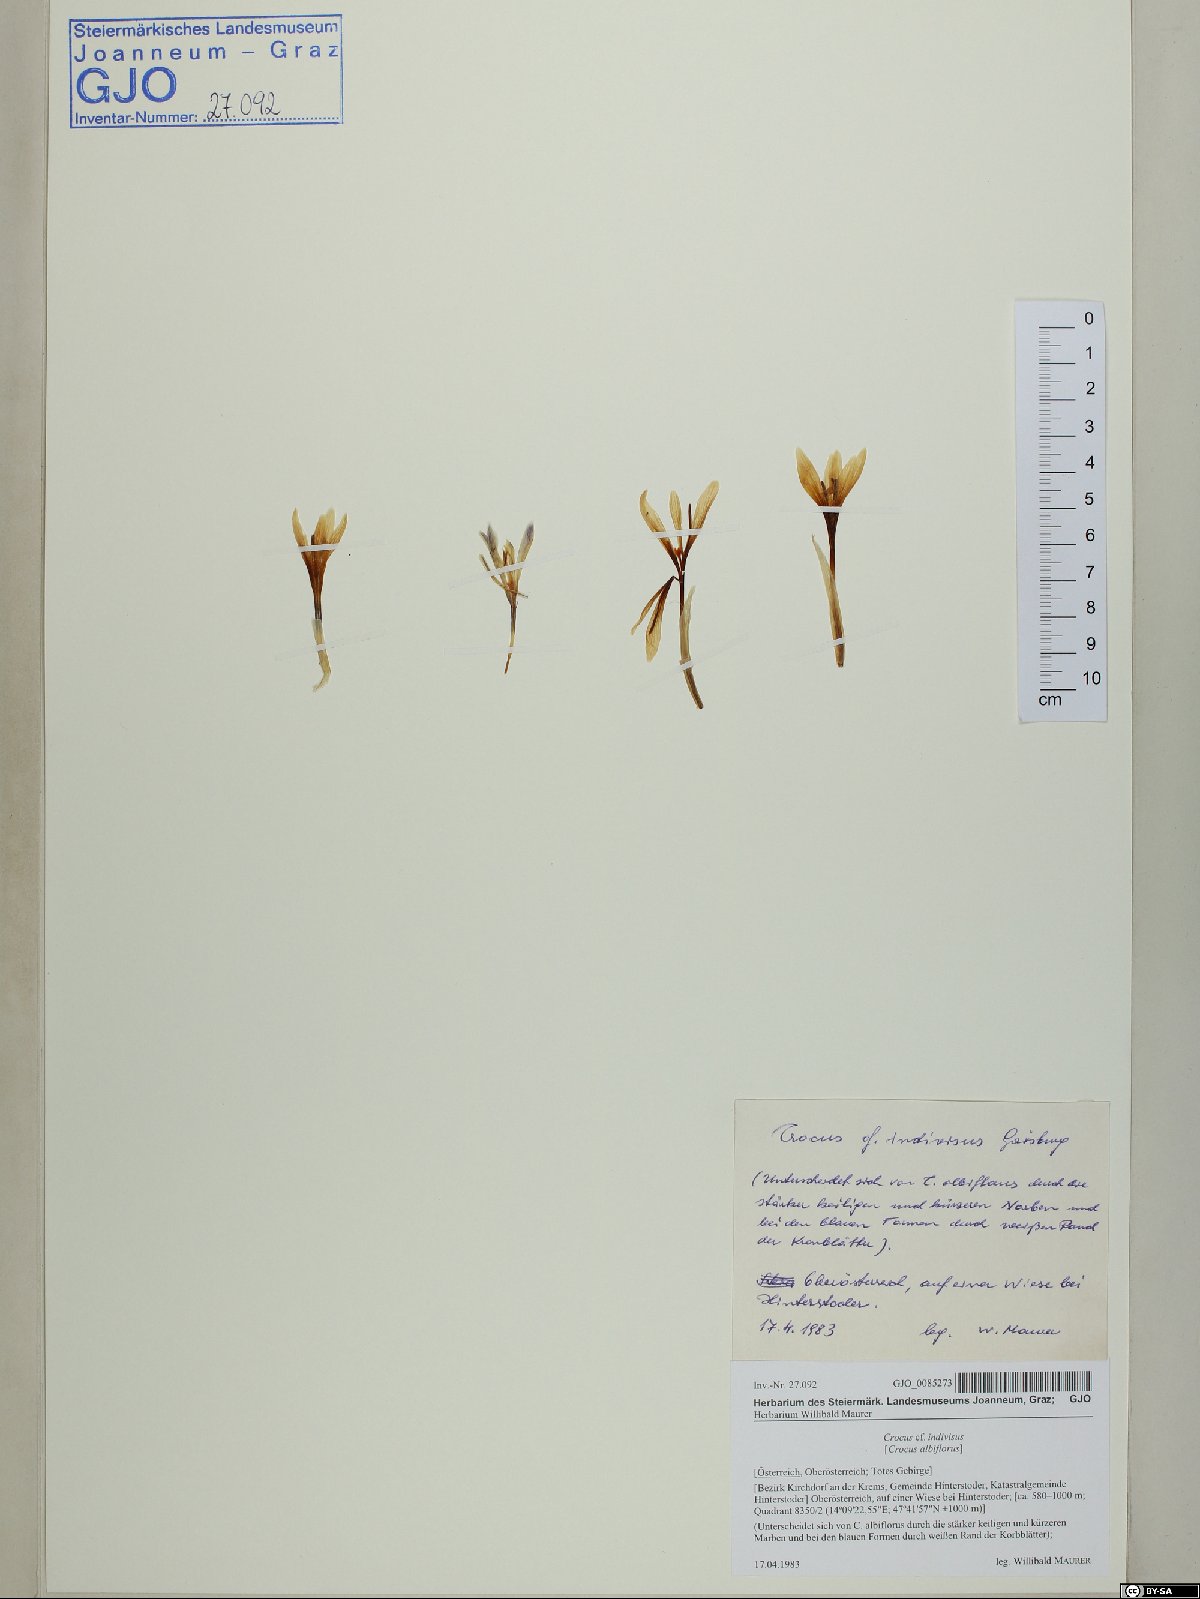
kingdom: Plantae
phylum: Tracheophyta
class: Liliopsida
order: Asparagales
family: Iridaceae
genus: Crocus
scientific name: Crocus duplex
